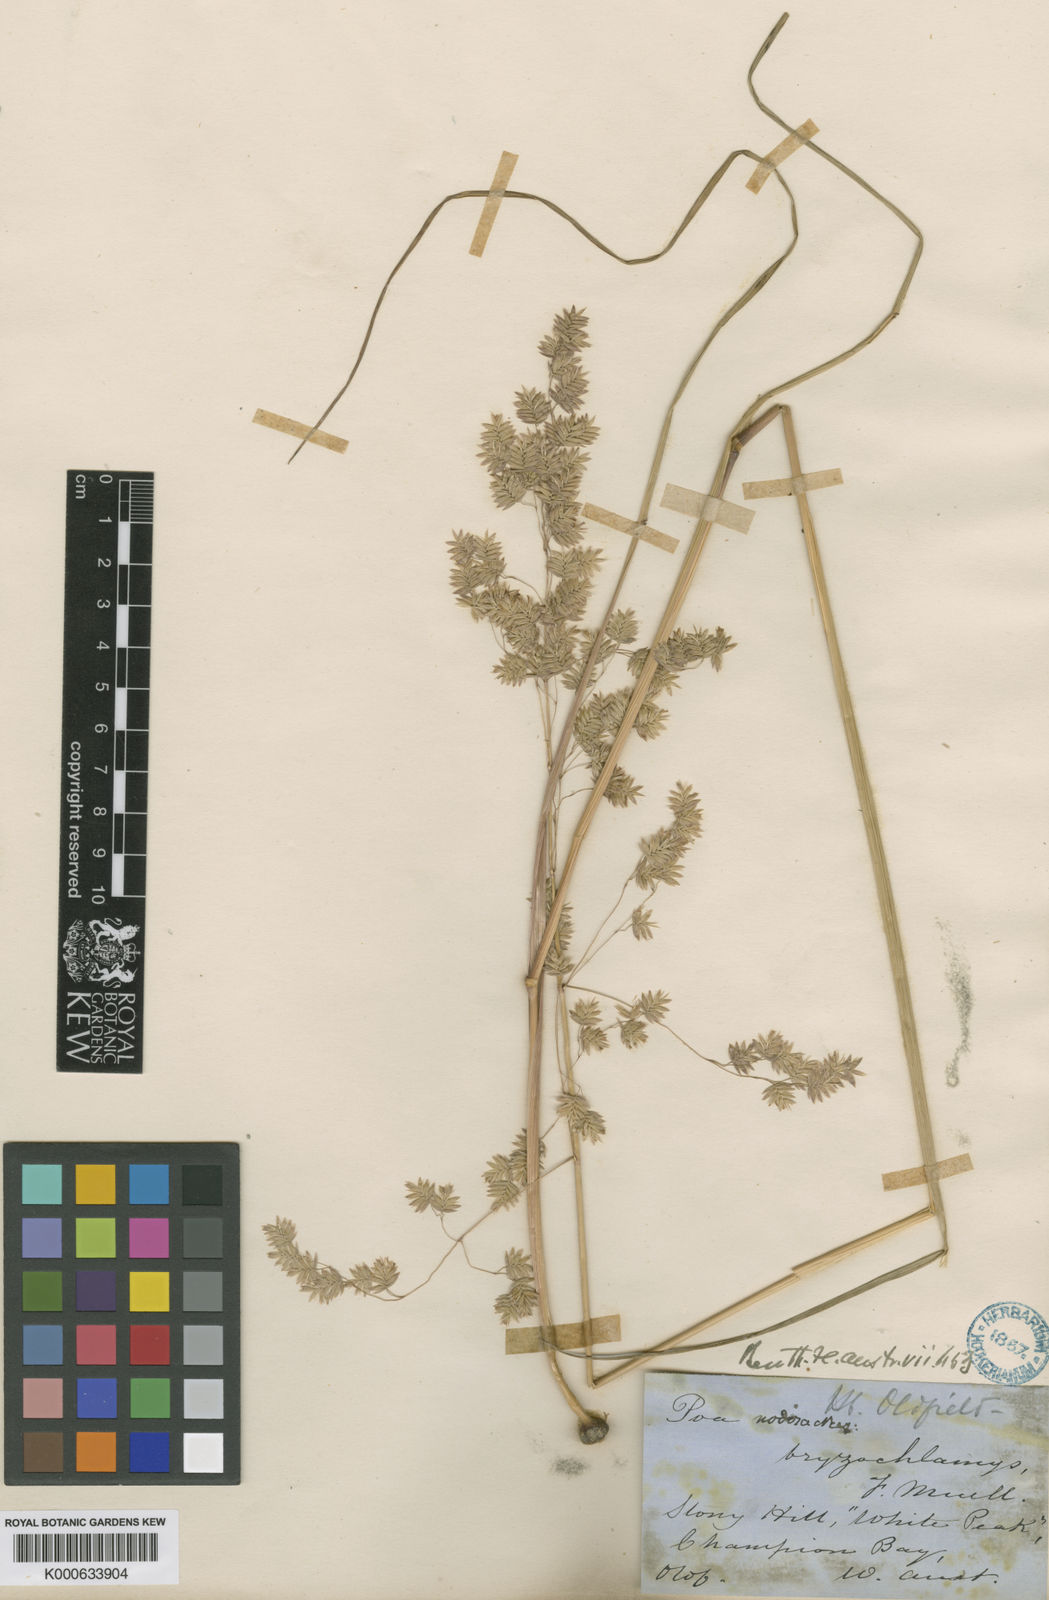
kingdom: Plantae
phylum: Tracheophyta
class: Liliopsida
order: Poales
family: Poaceae
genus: Poa
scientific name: Poa drummondiana
